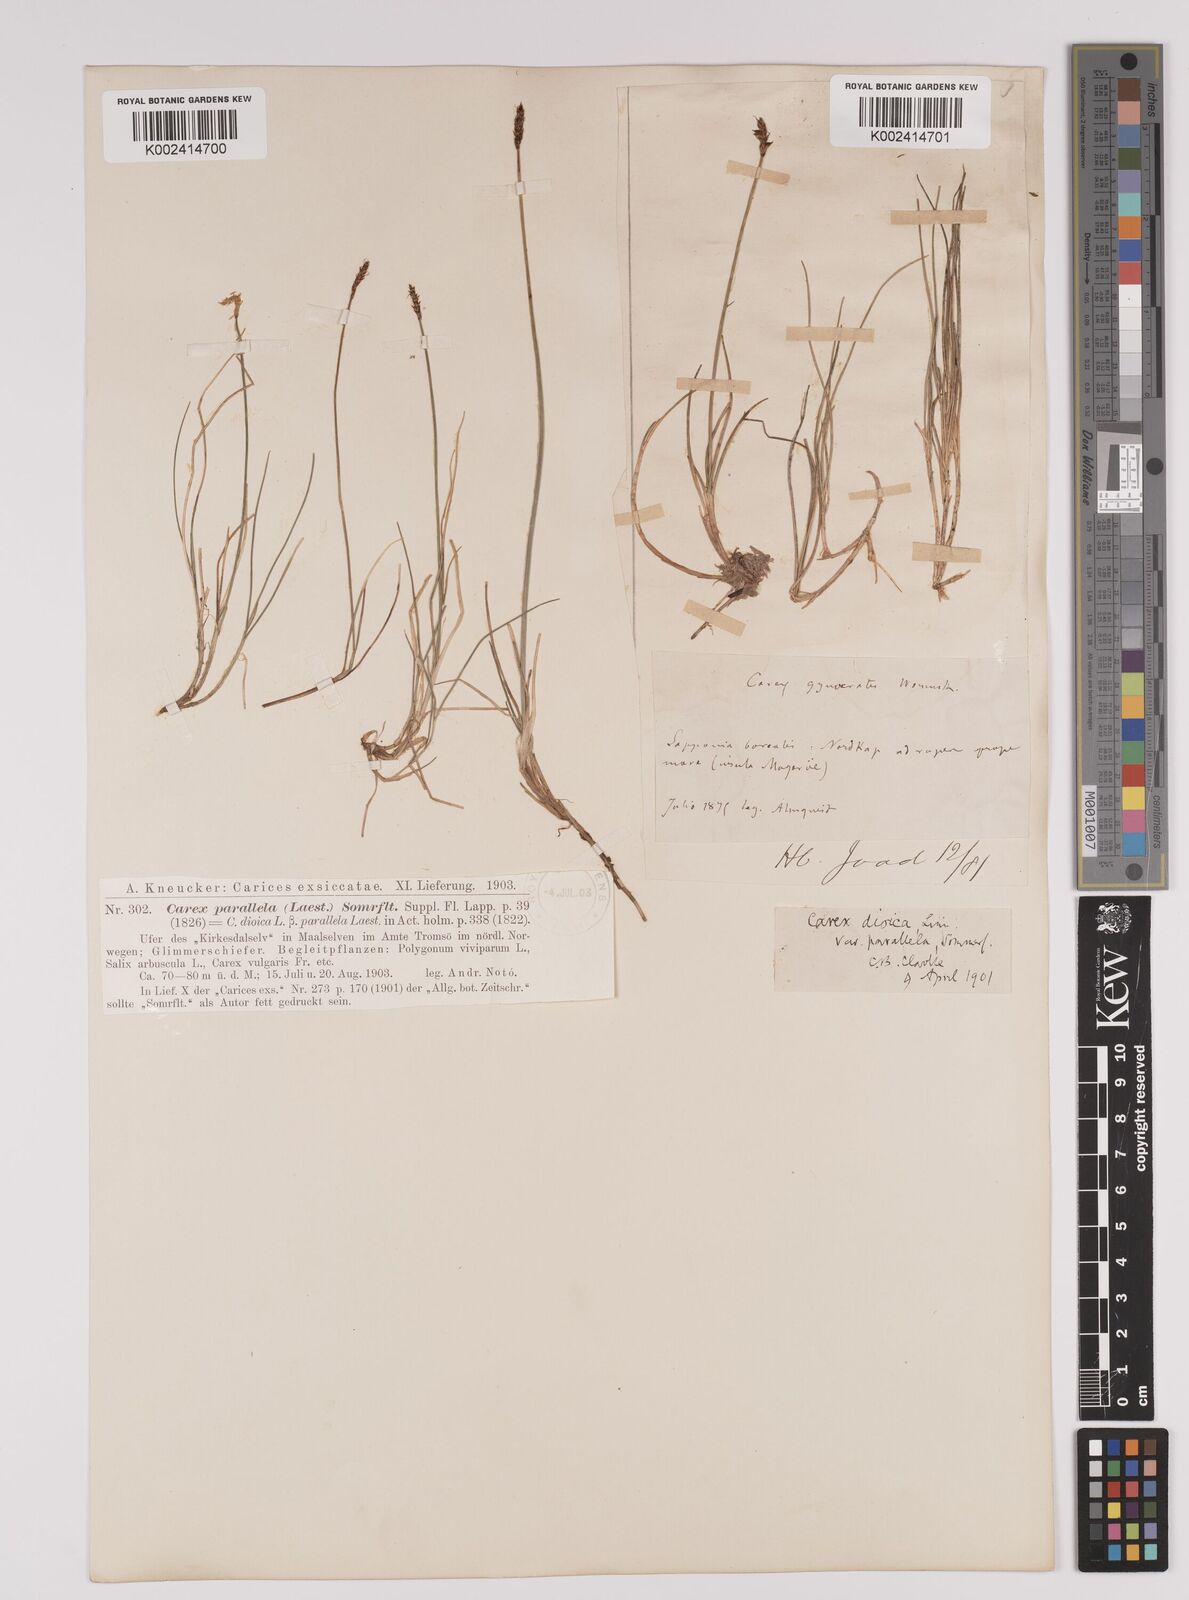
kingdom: Plantae
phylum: Tracheophyta
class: Liliopsida
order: Poales
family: Cyperaceae
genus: Carex
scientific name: Carex parallela
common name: Parallel sedge
